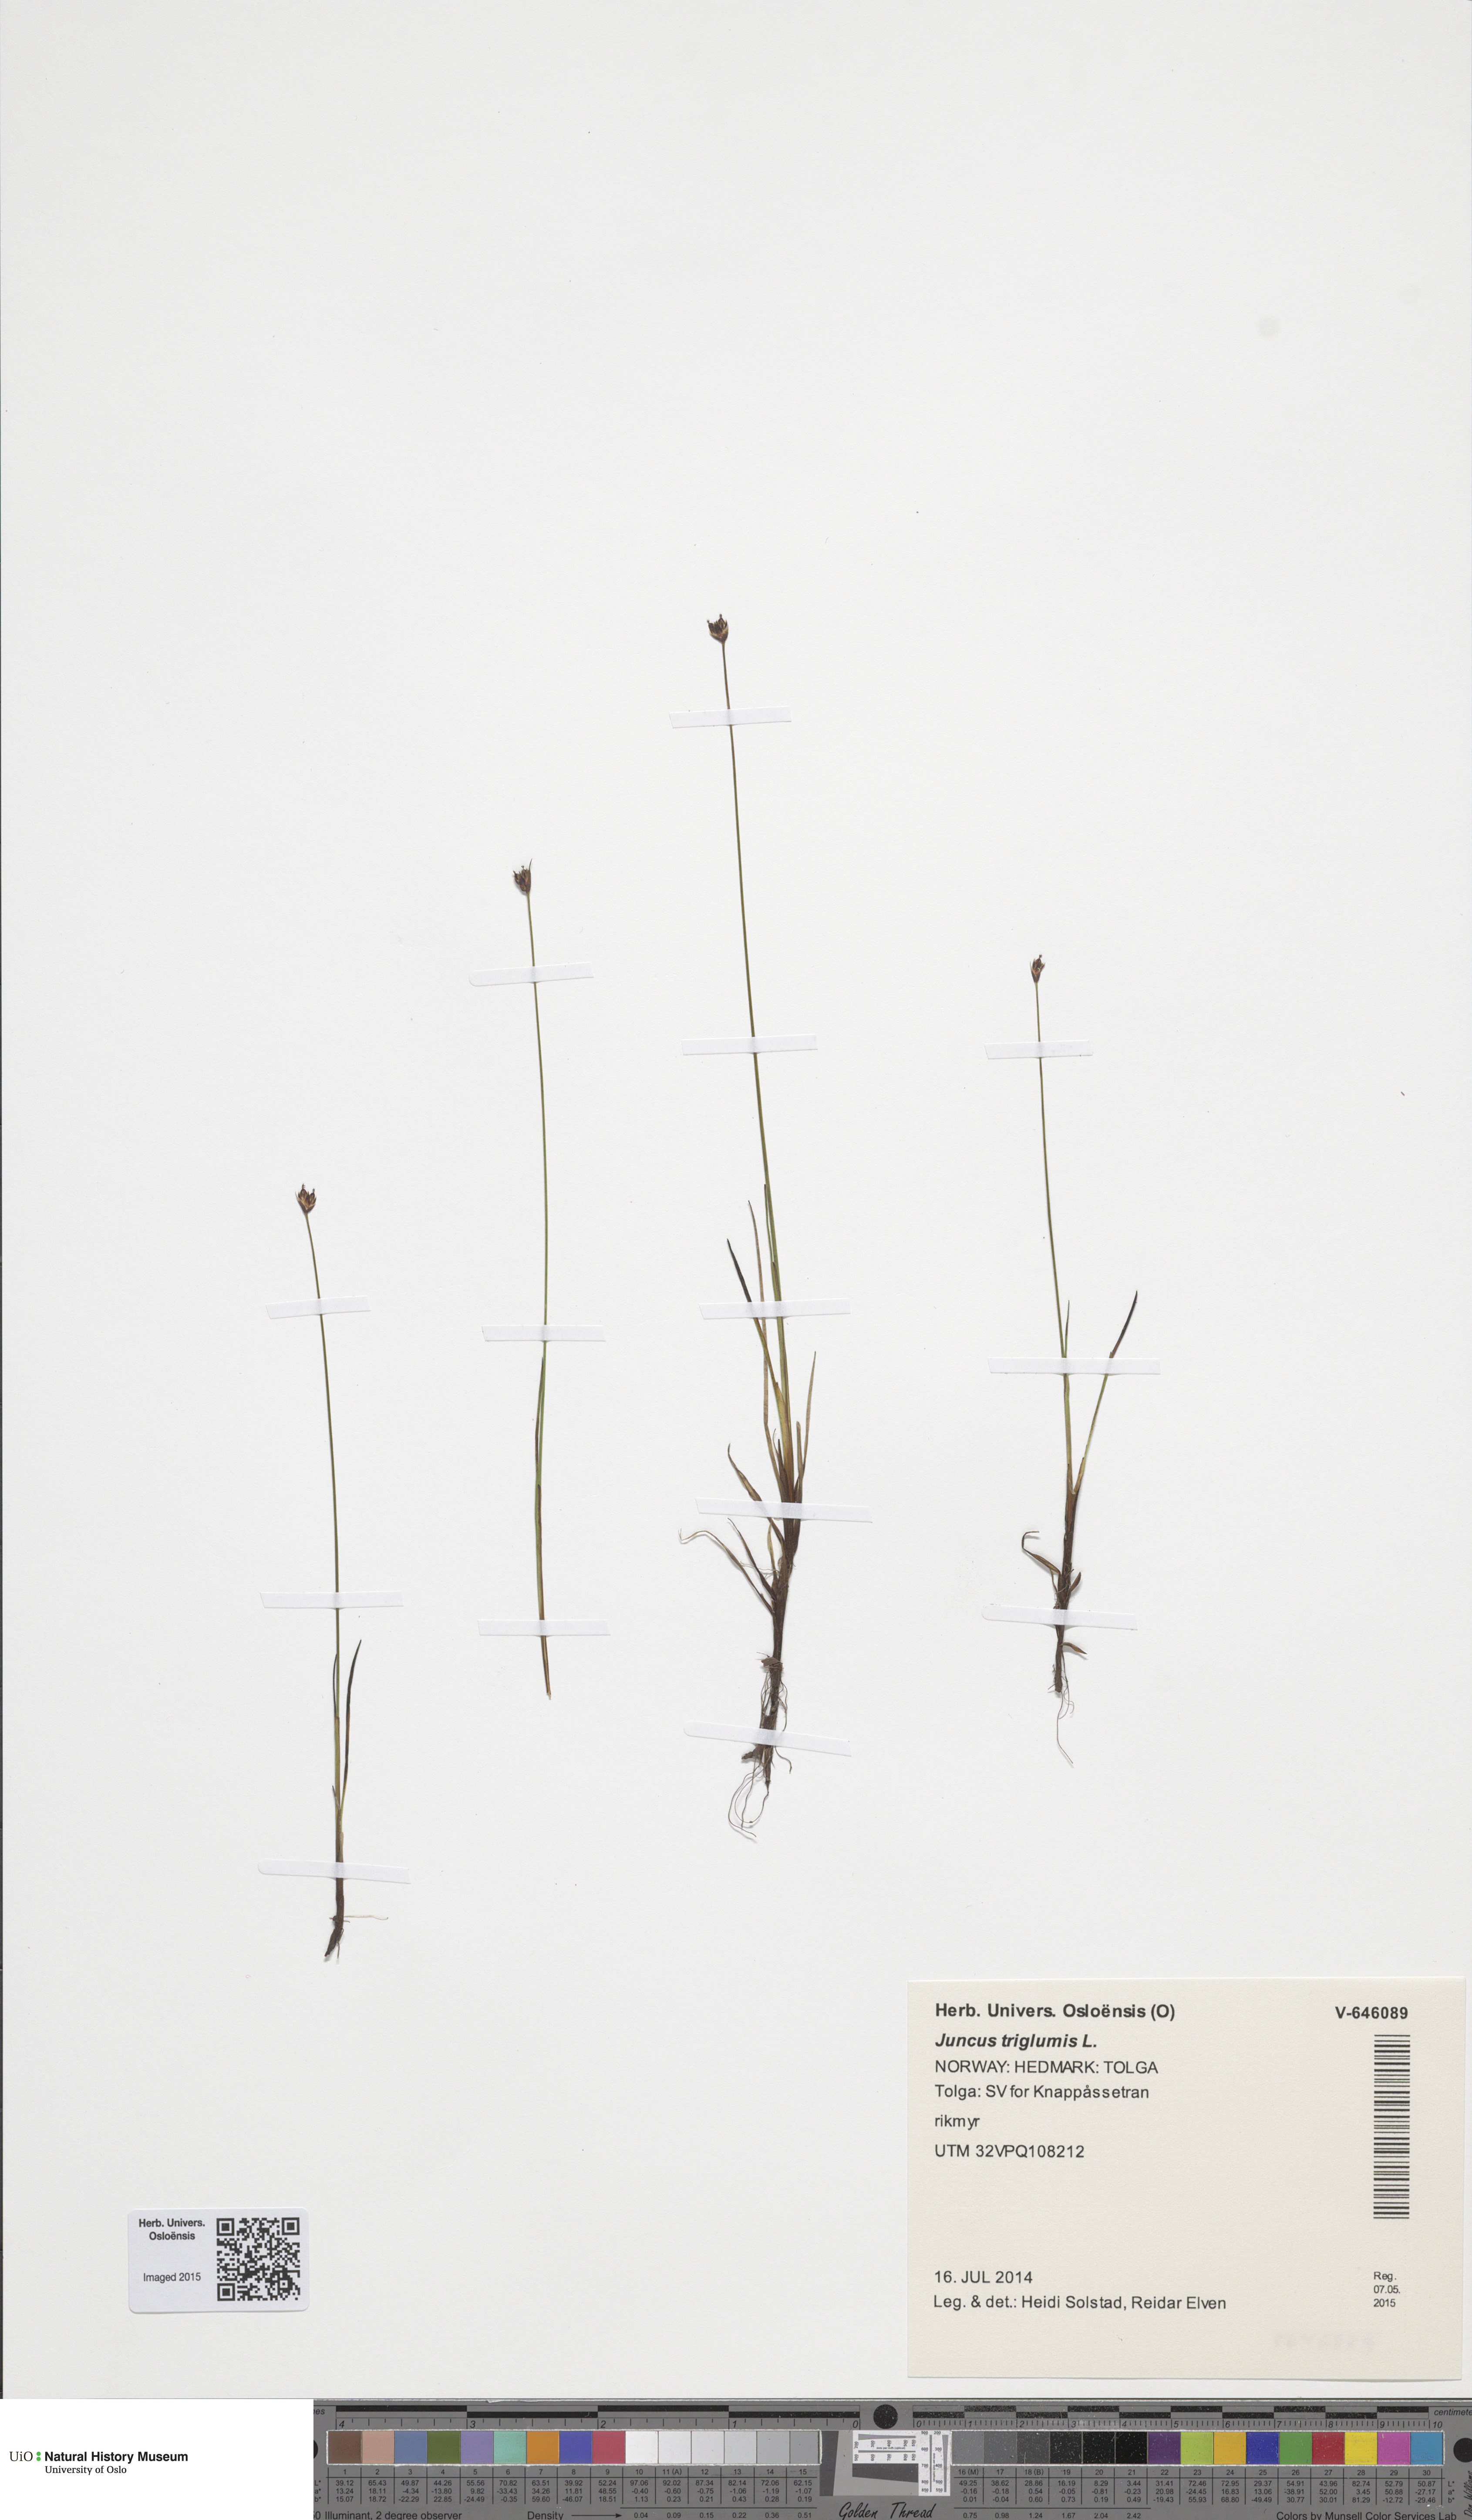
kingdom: Plantae
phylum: Tracheophyta
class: Liliopsida
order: Poales
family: Juncaceae
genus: Juncus
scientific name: Juncus triglumis
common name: Three-flowered rush
